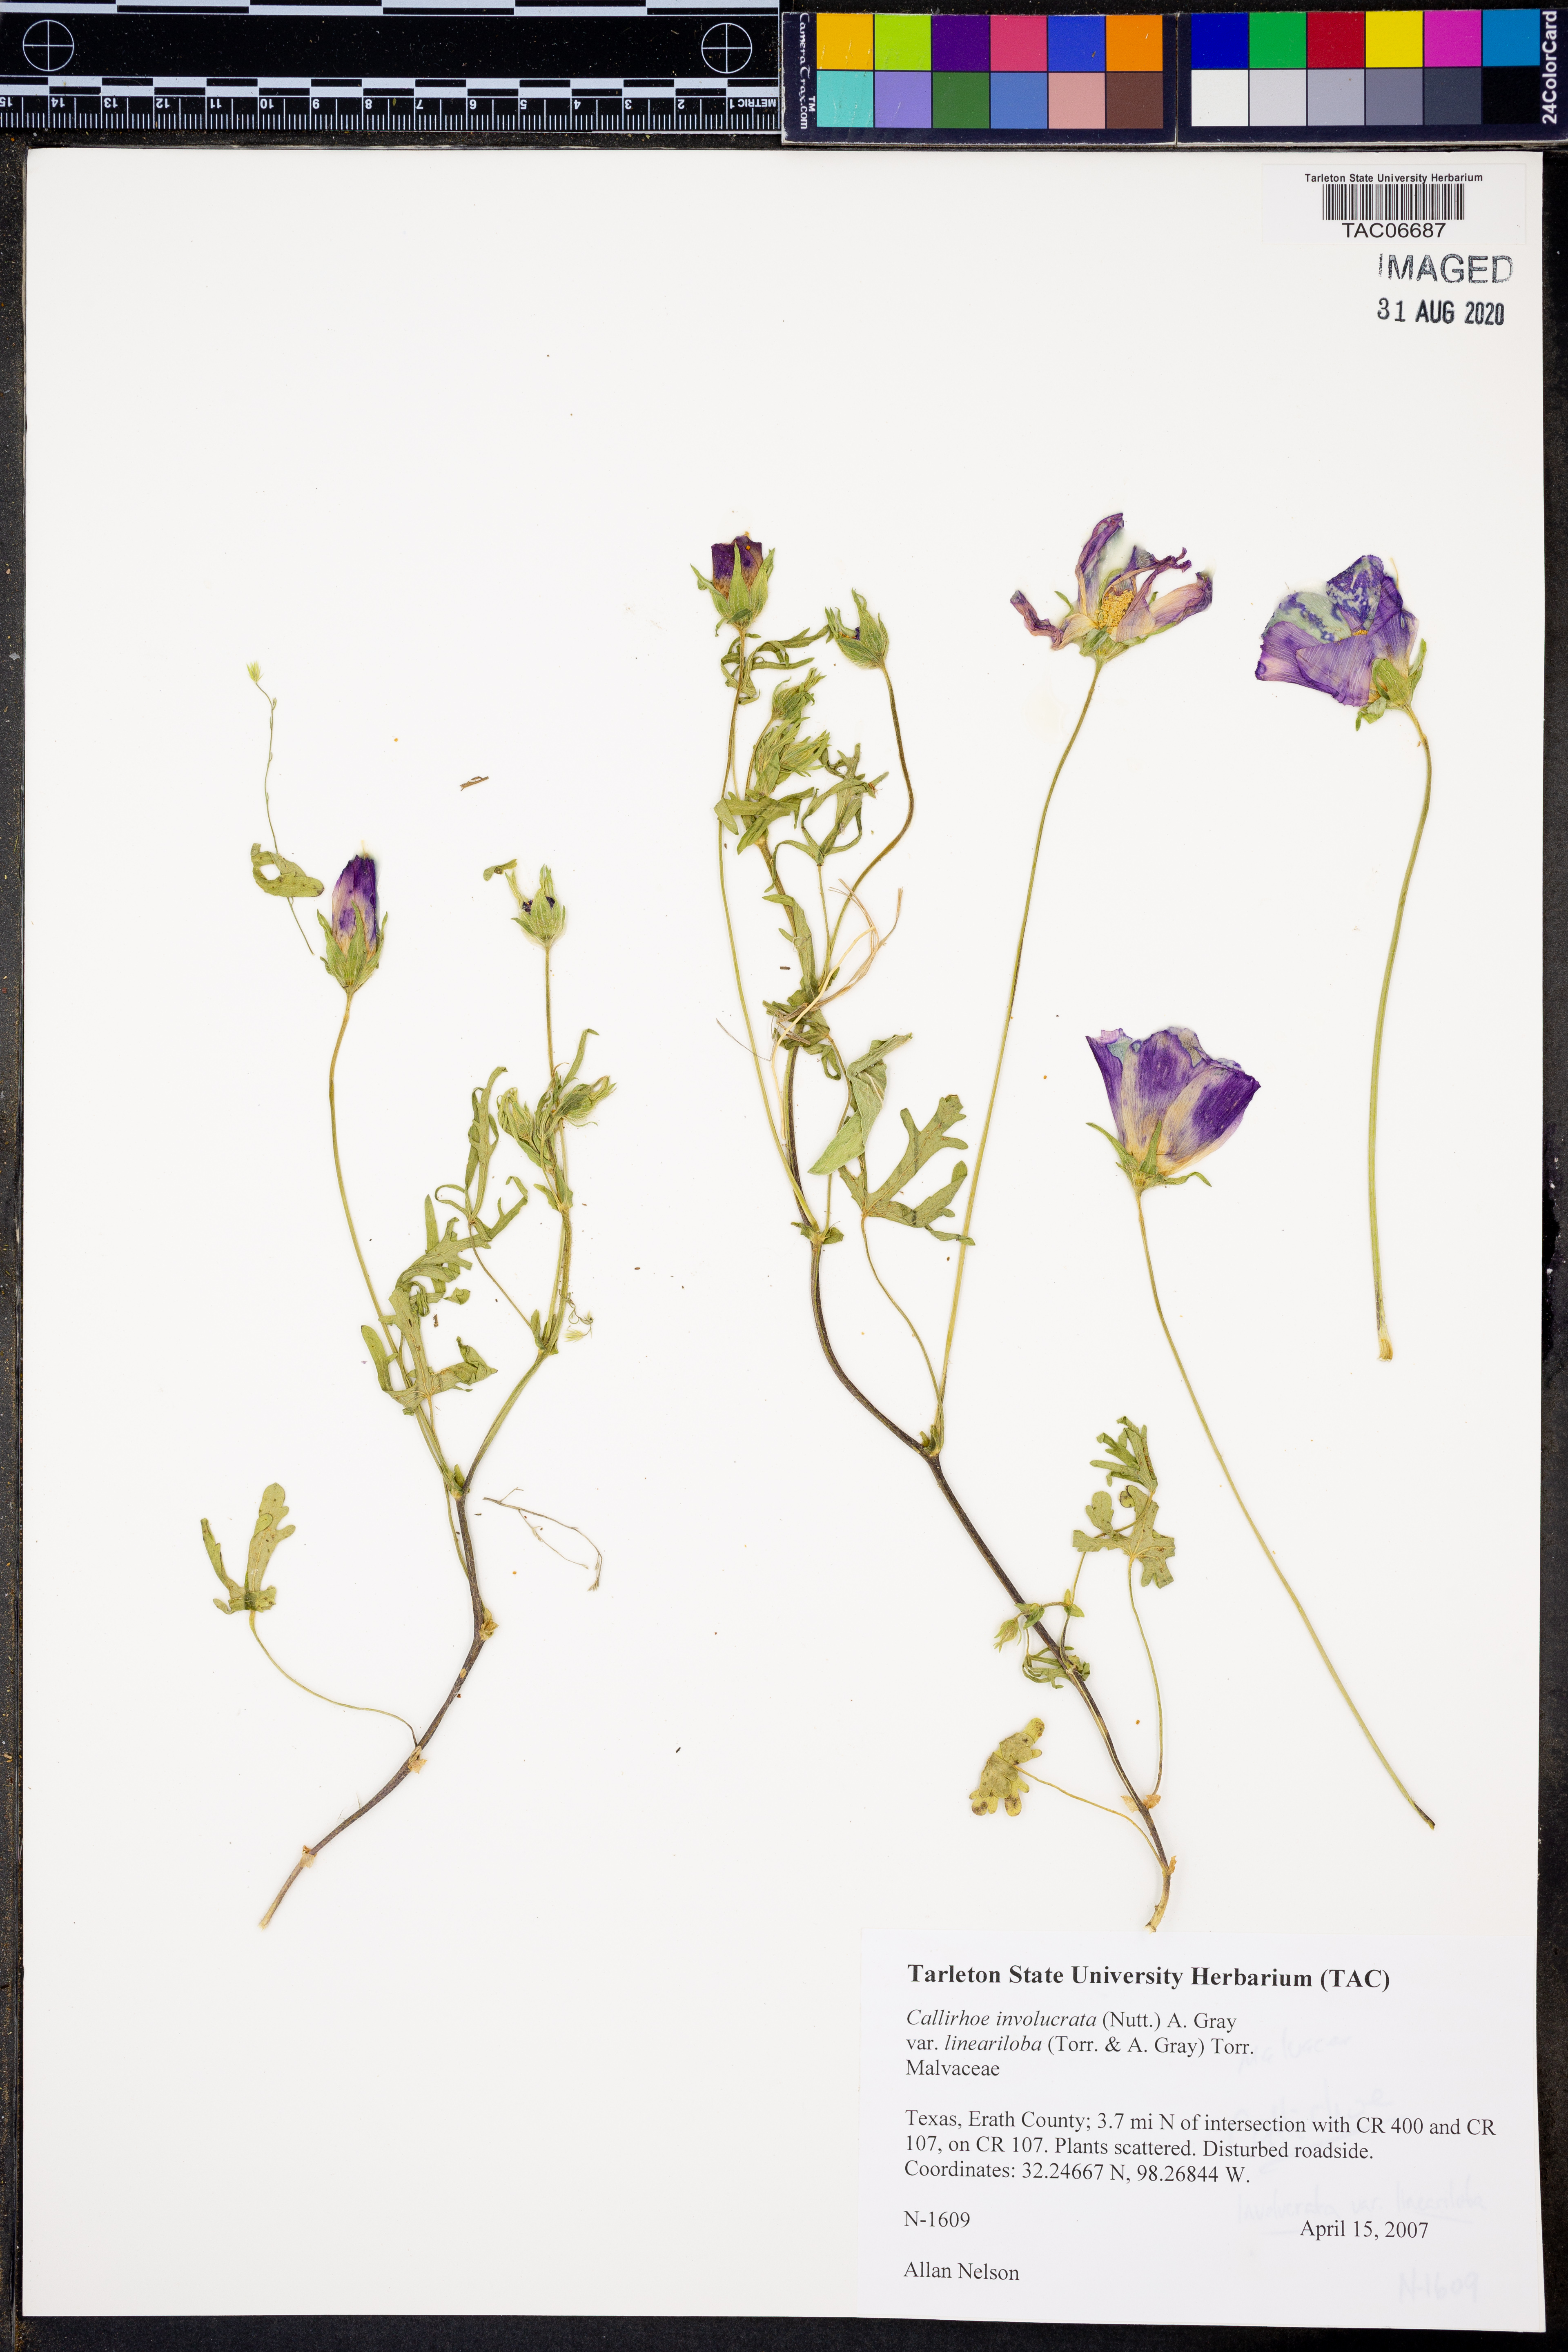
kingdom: Plantae
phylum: Tracheophyta
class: Magnoliopsida
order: Malvales
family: Malvaceae
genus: Callirhoe
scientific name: Callirhoe involucrata
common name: Purple poppy-mallow
